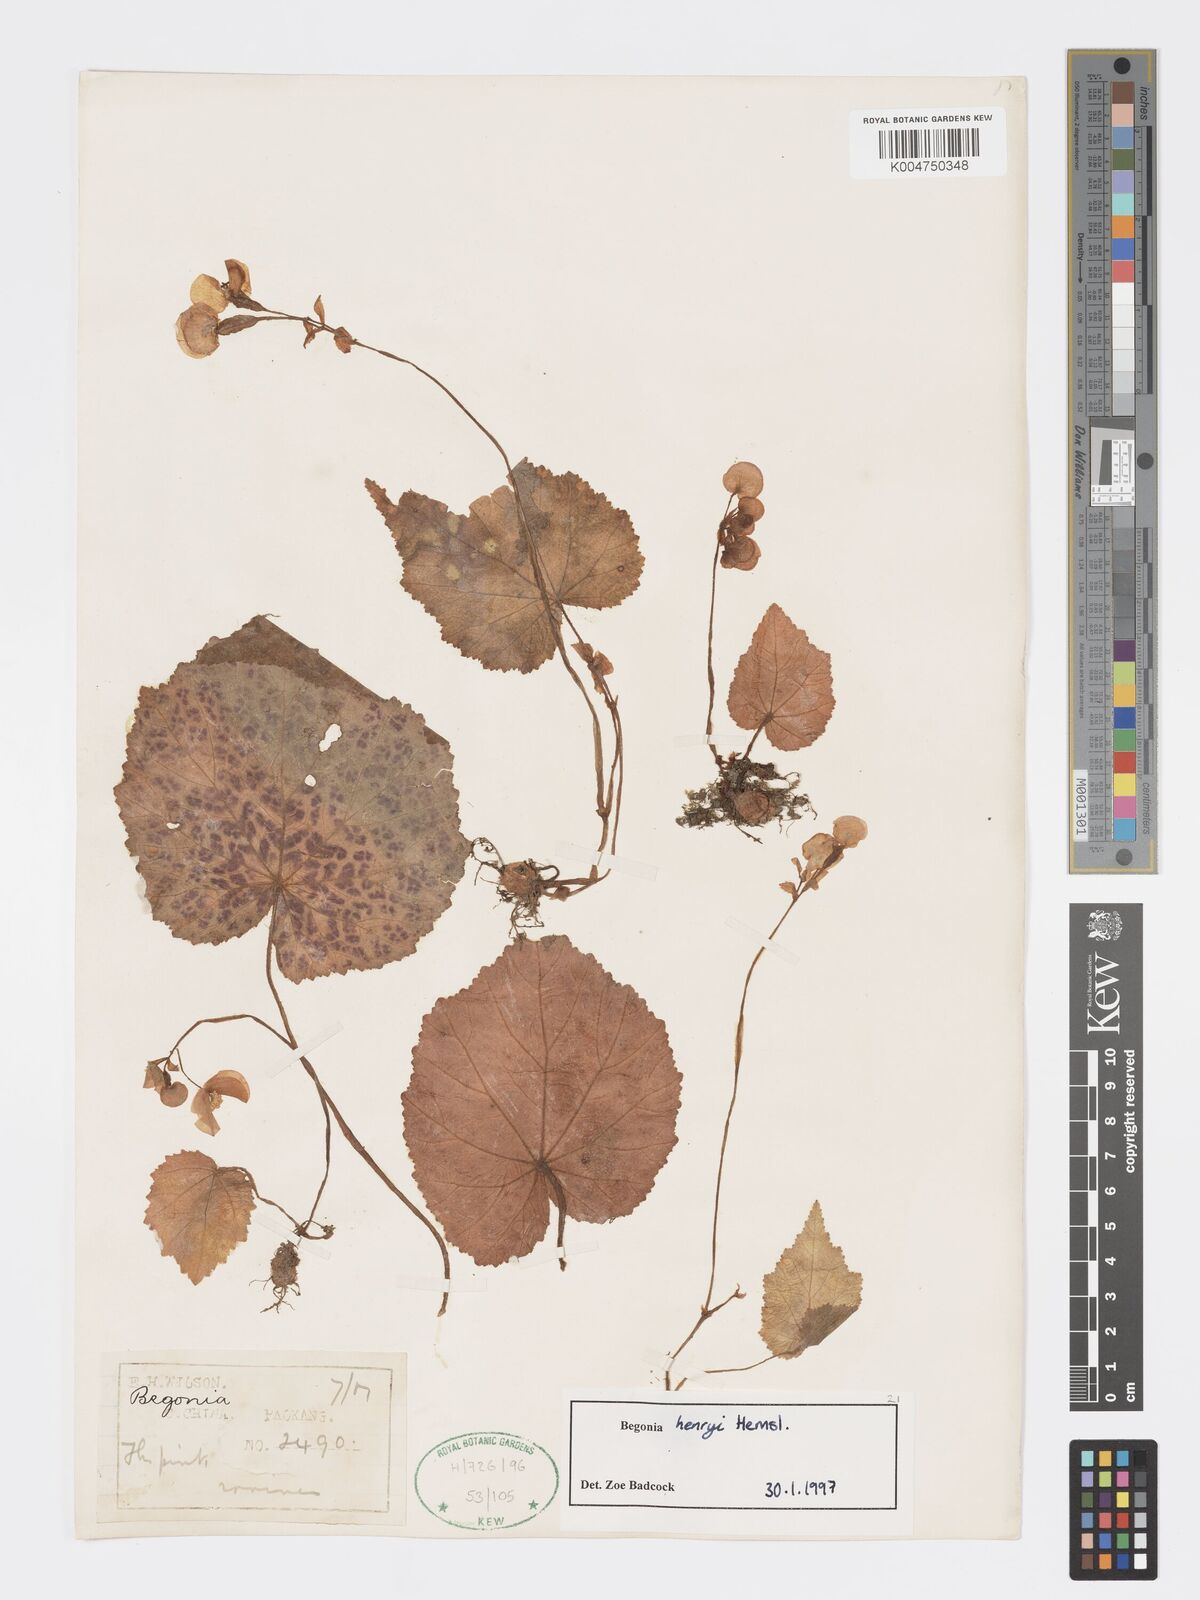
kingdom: Plantae
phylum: Tracheophyta
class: Magnoliopsida
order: Cucurbitales
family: Begoniaceae
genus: Begonia
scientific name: Begonia henryi
